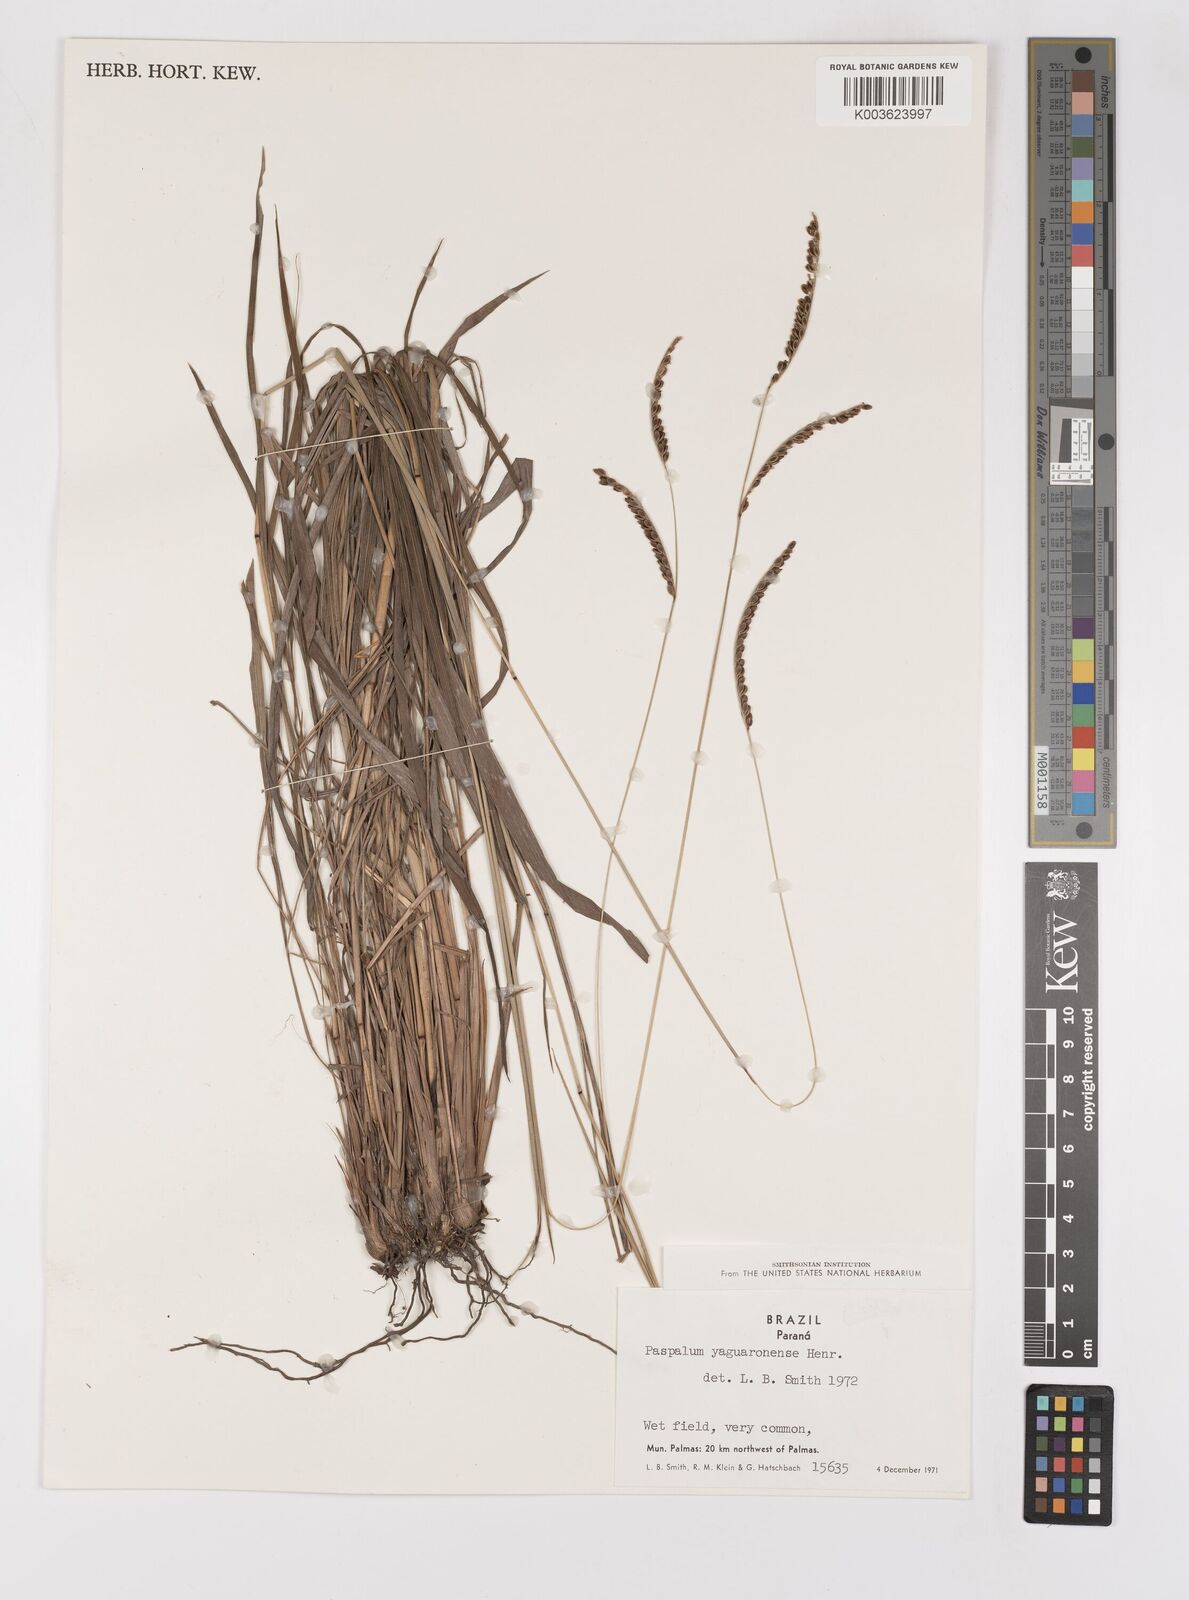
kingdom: Plantae
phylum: Tracheophyta
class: Liliopsida
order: Poales
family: Poaceae
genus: Paspalum
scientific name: Paspalum glaucescens
